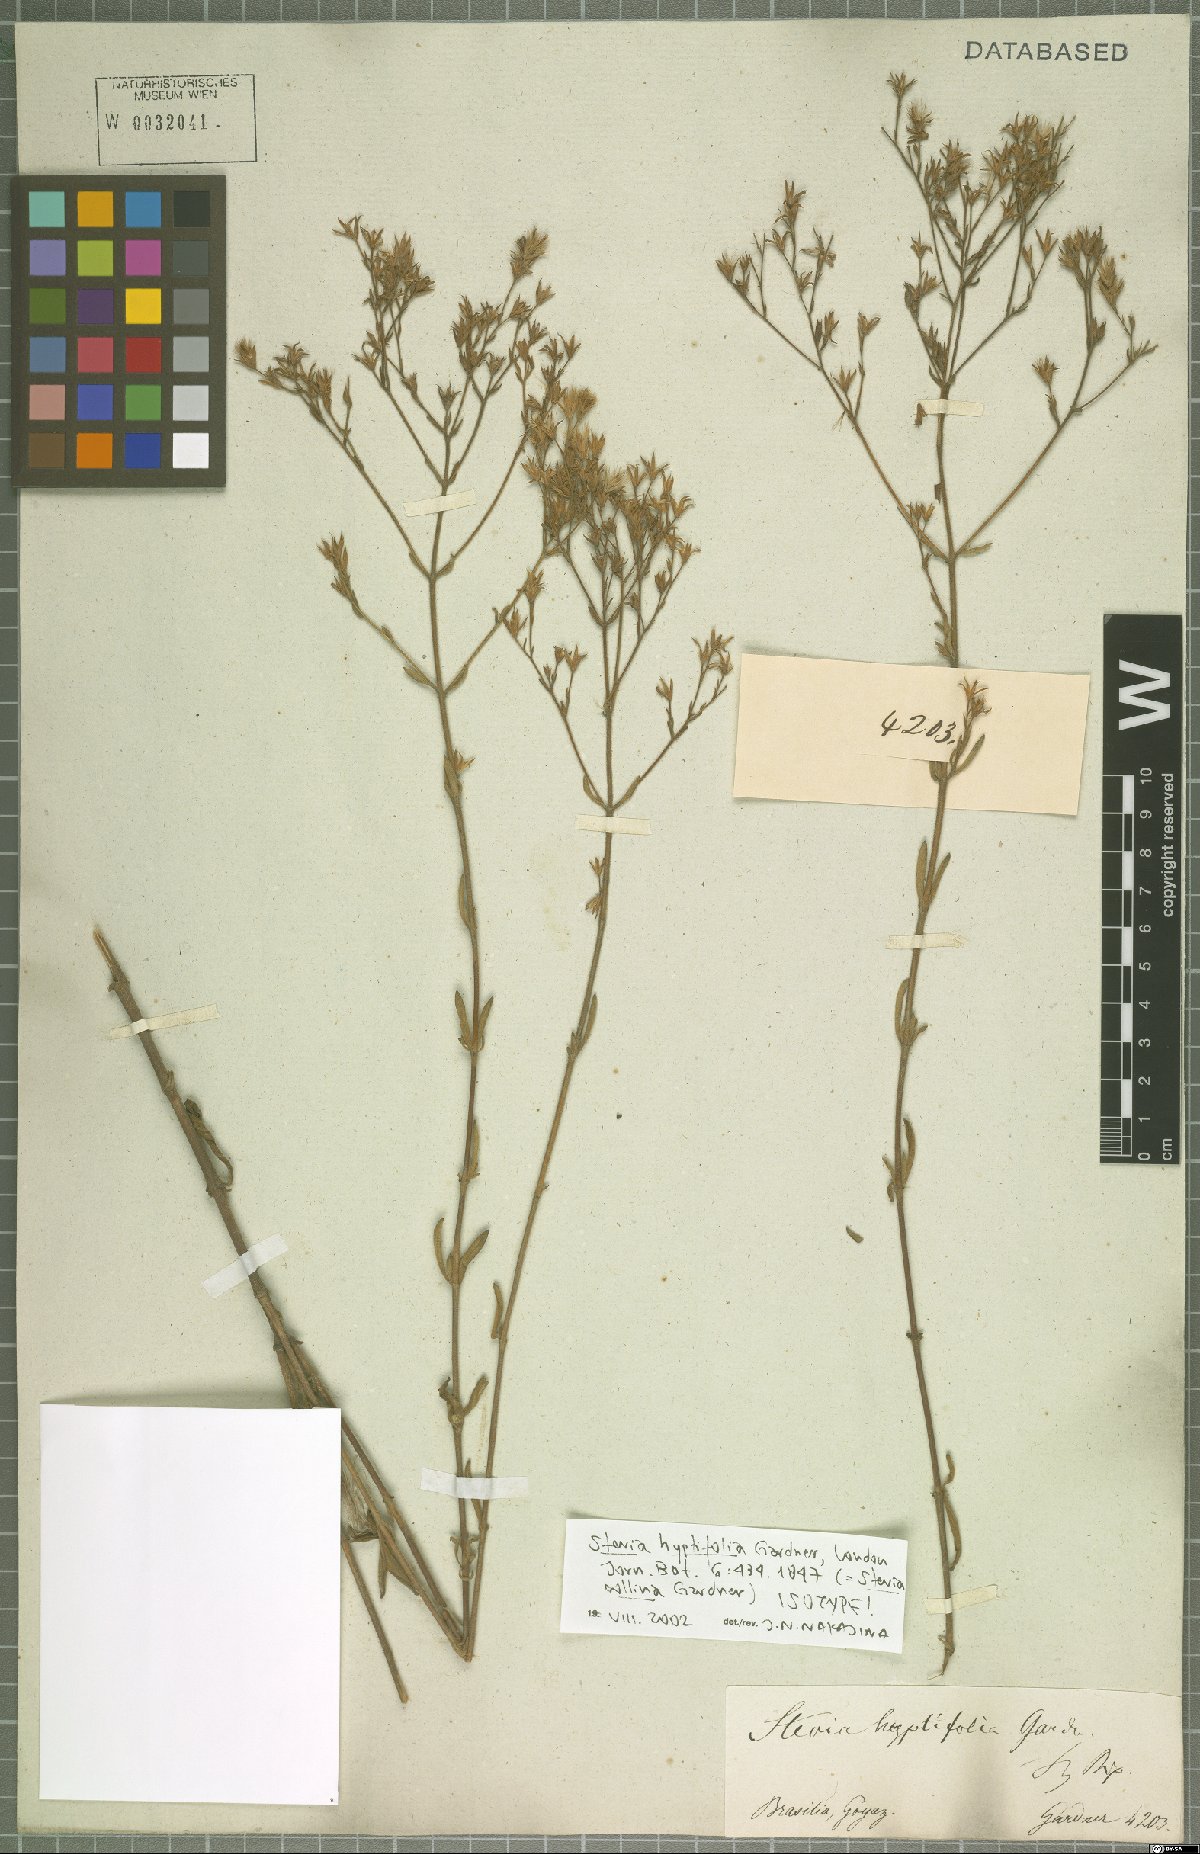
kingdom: Plantae
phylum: Tracheophyta
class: Magnoliopsida
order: Asterales
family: Asteraceae
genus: Stevia
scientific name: Stevia collina
